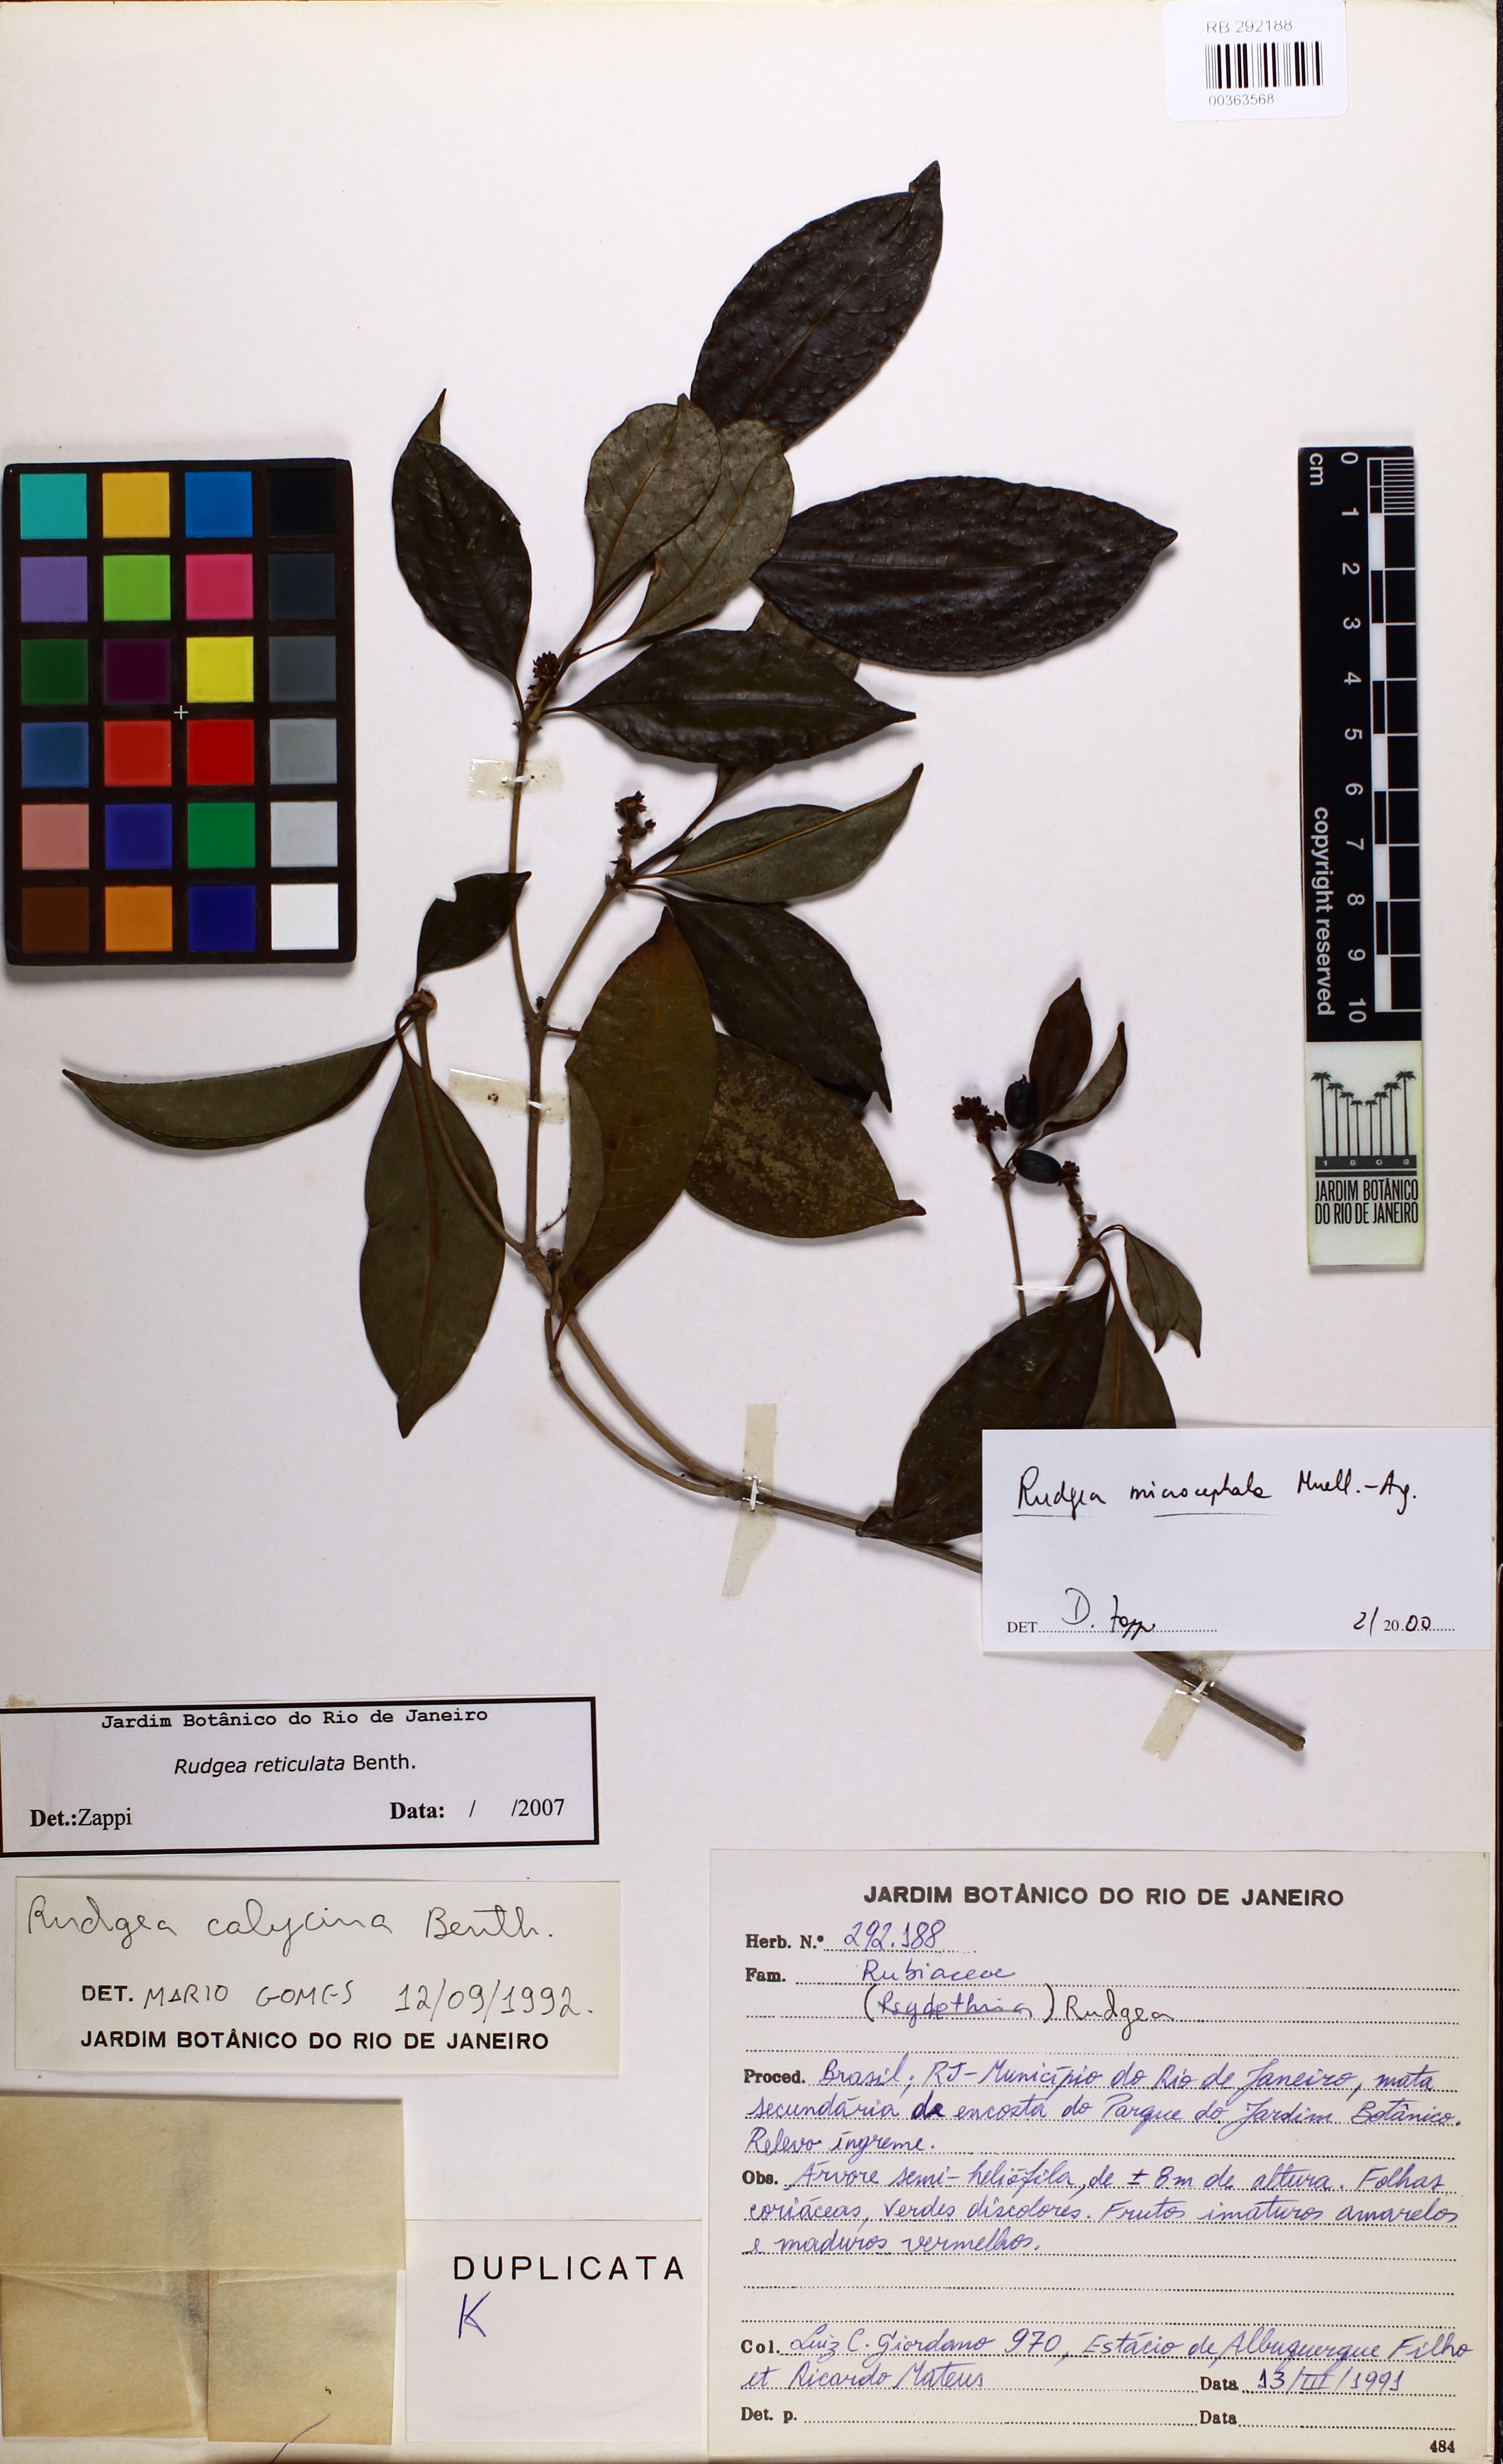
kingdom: Plantae
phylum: Tracheophyta
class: Magnoliopsida
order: Gentianales
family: Rubiaceae
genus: Rudgea
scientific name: Rudgea reticulata
